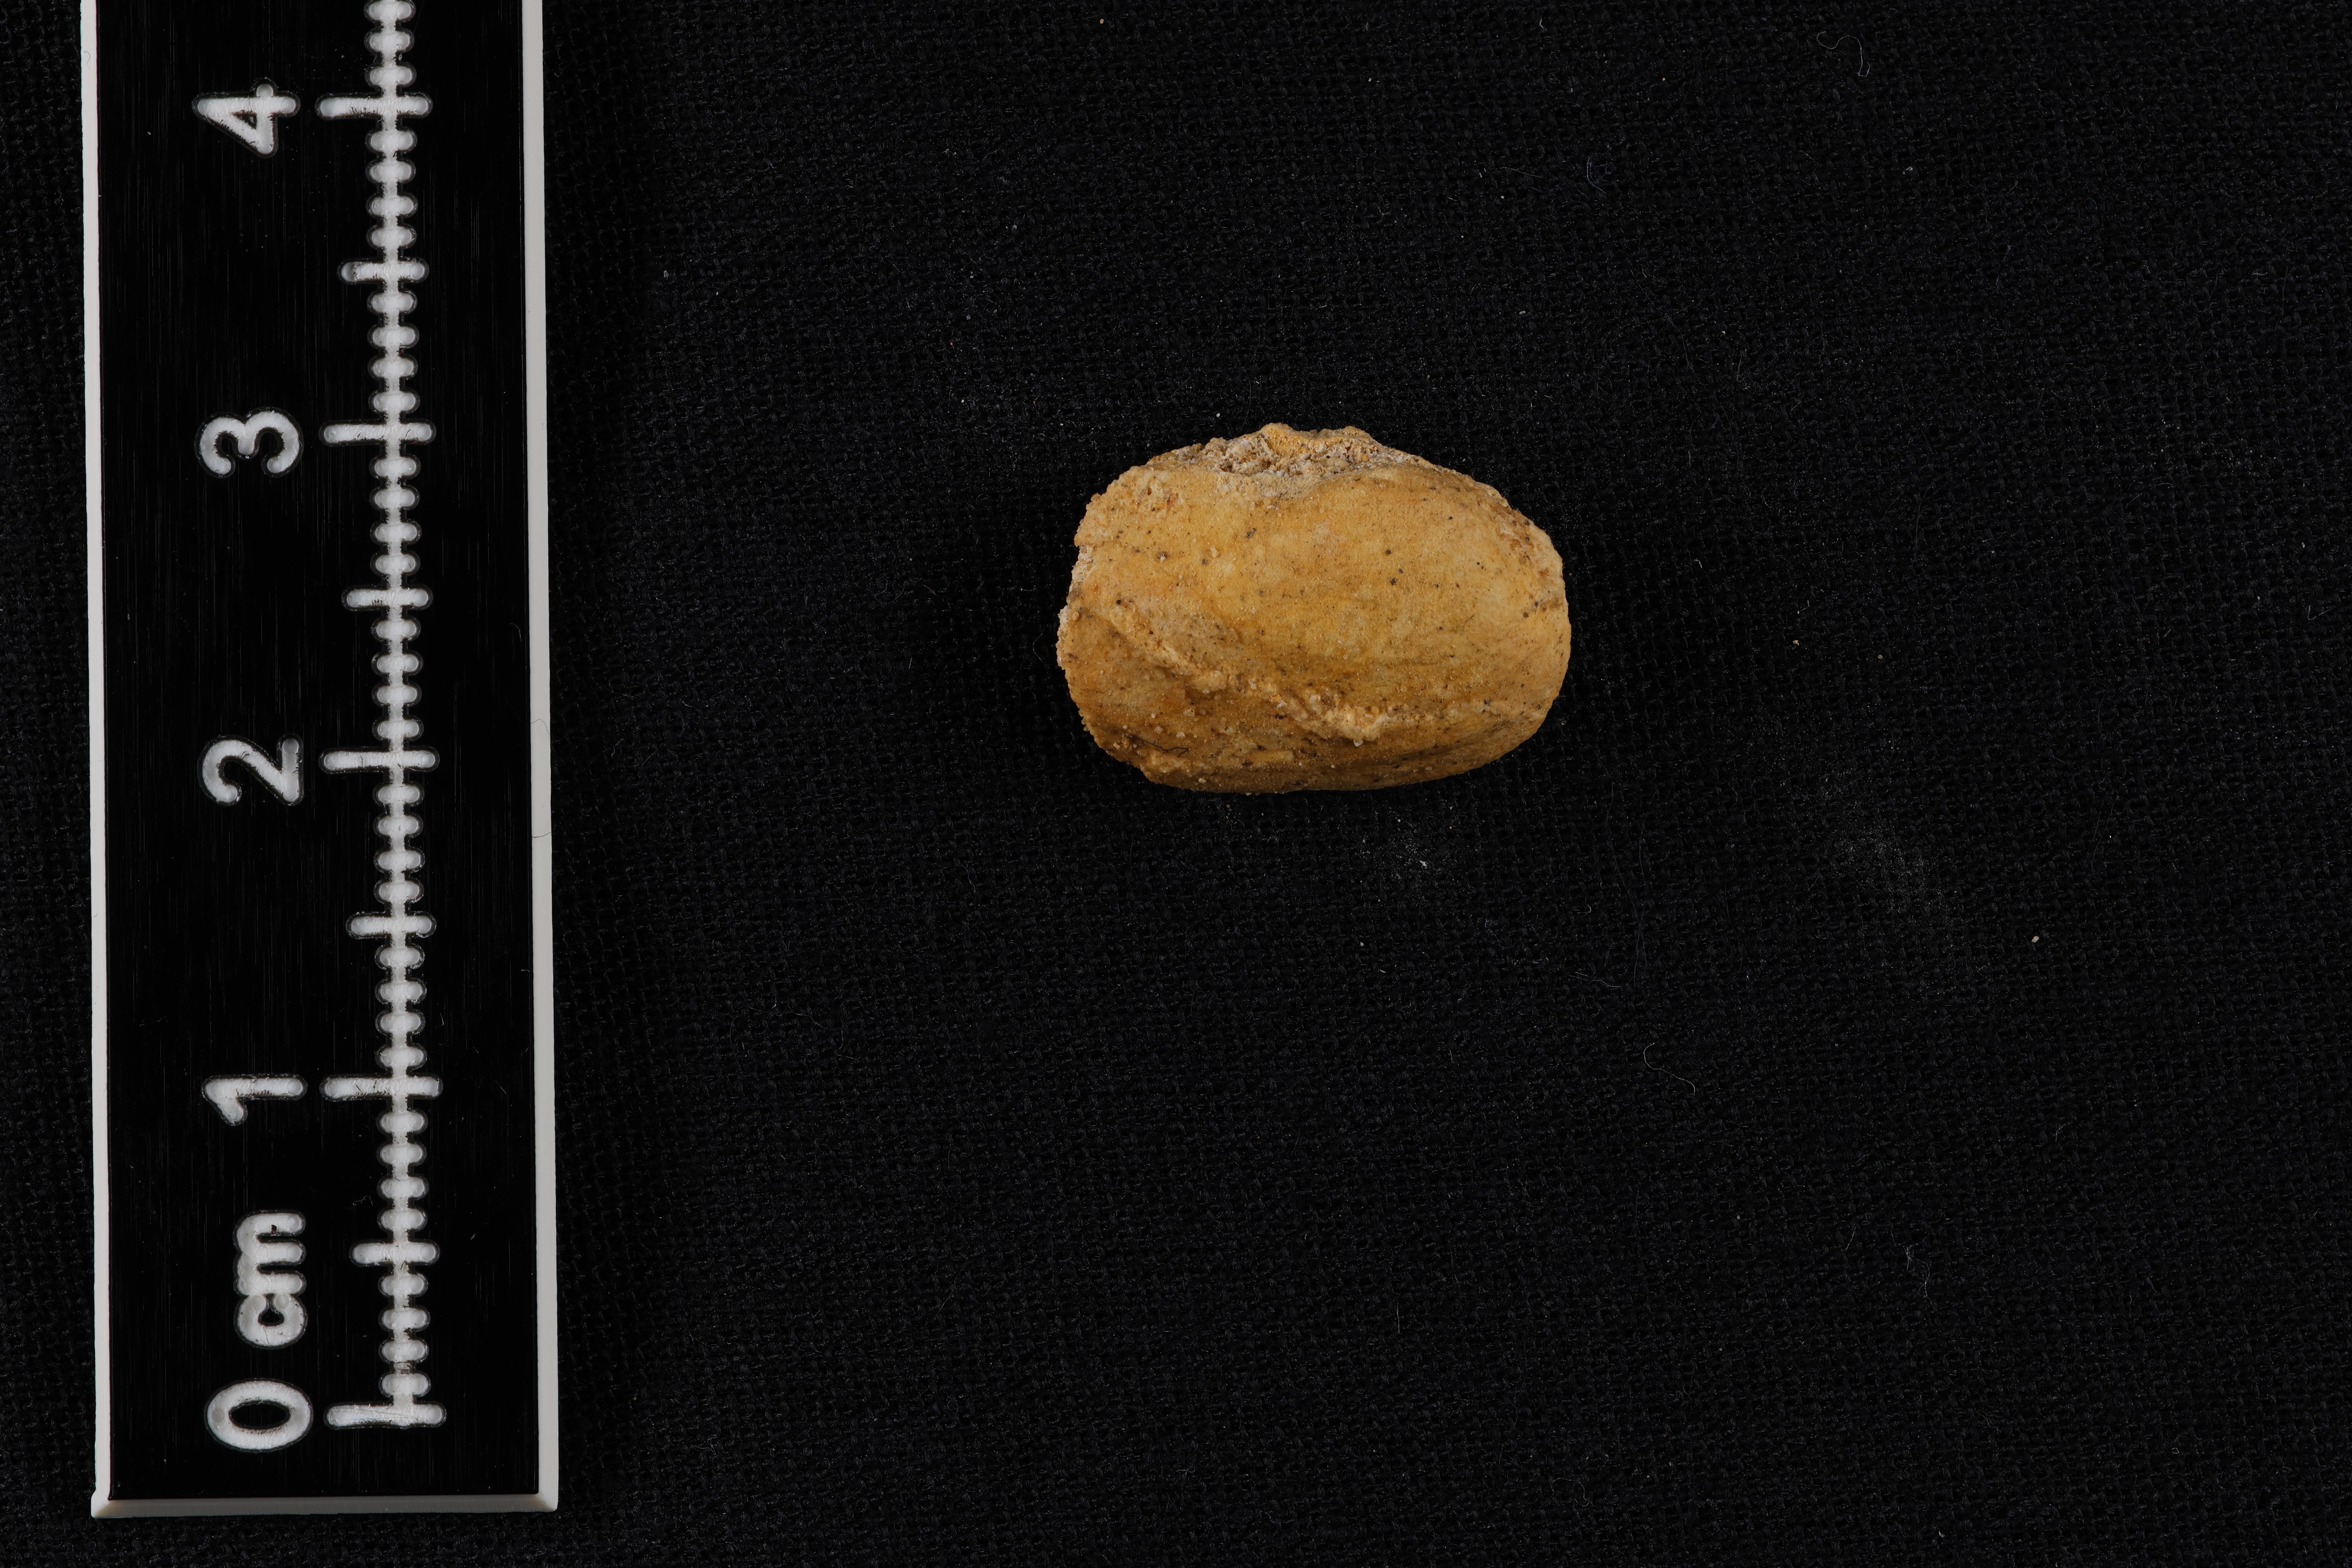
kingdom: Animalia
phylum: Mollusca
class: Bivalvia
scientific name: Bivalvia
